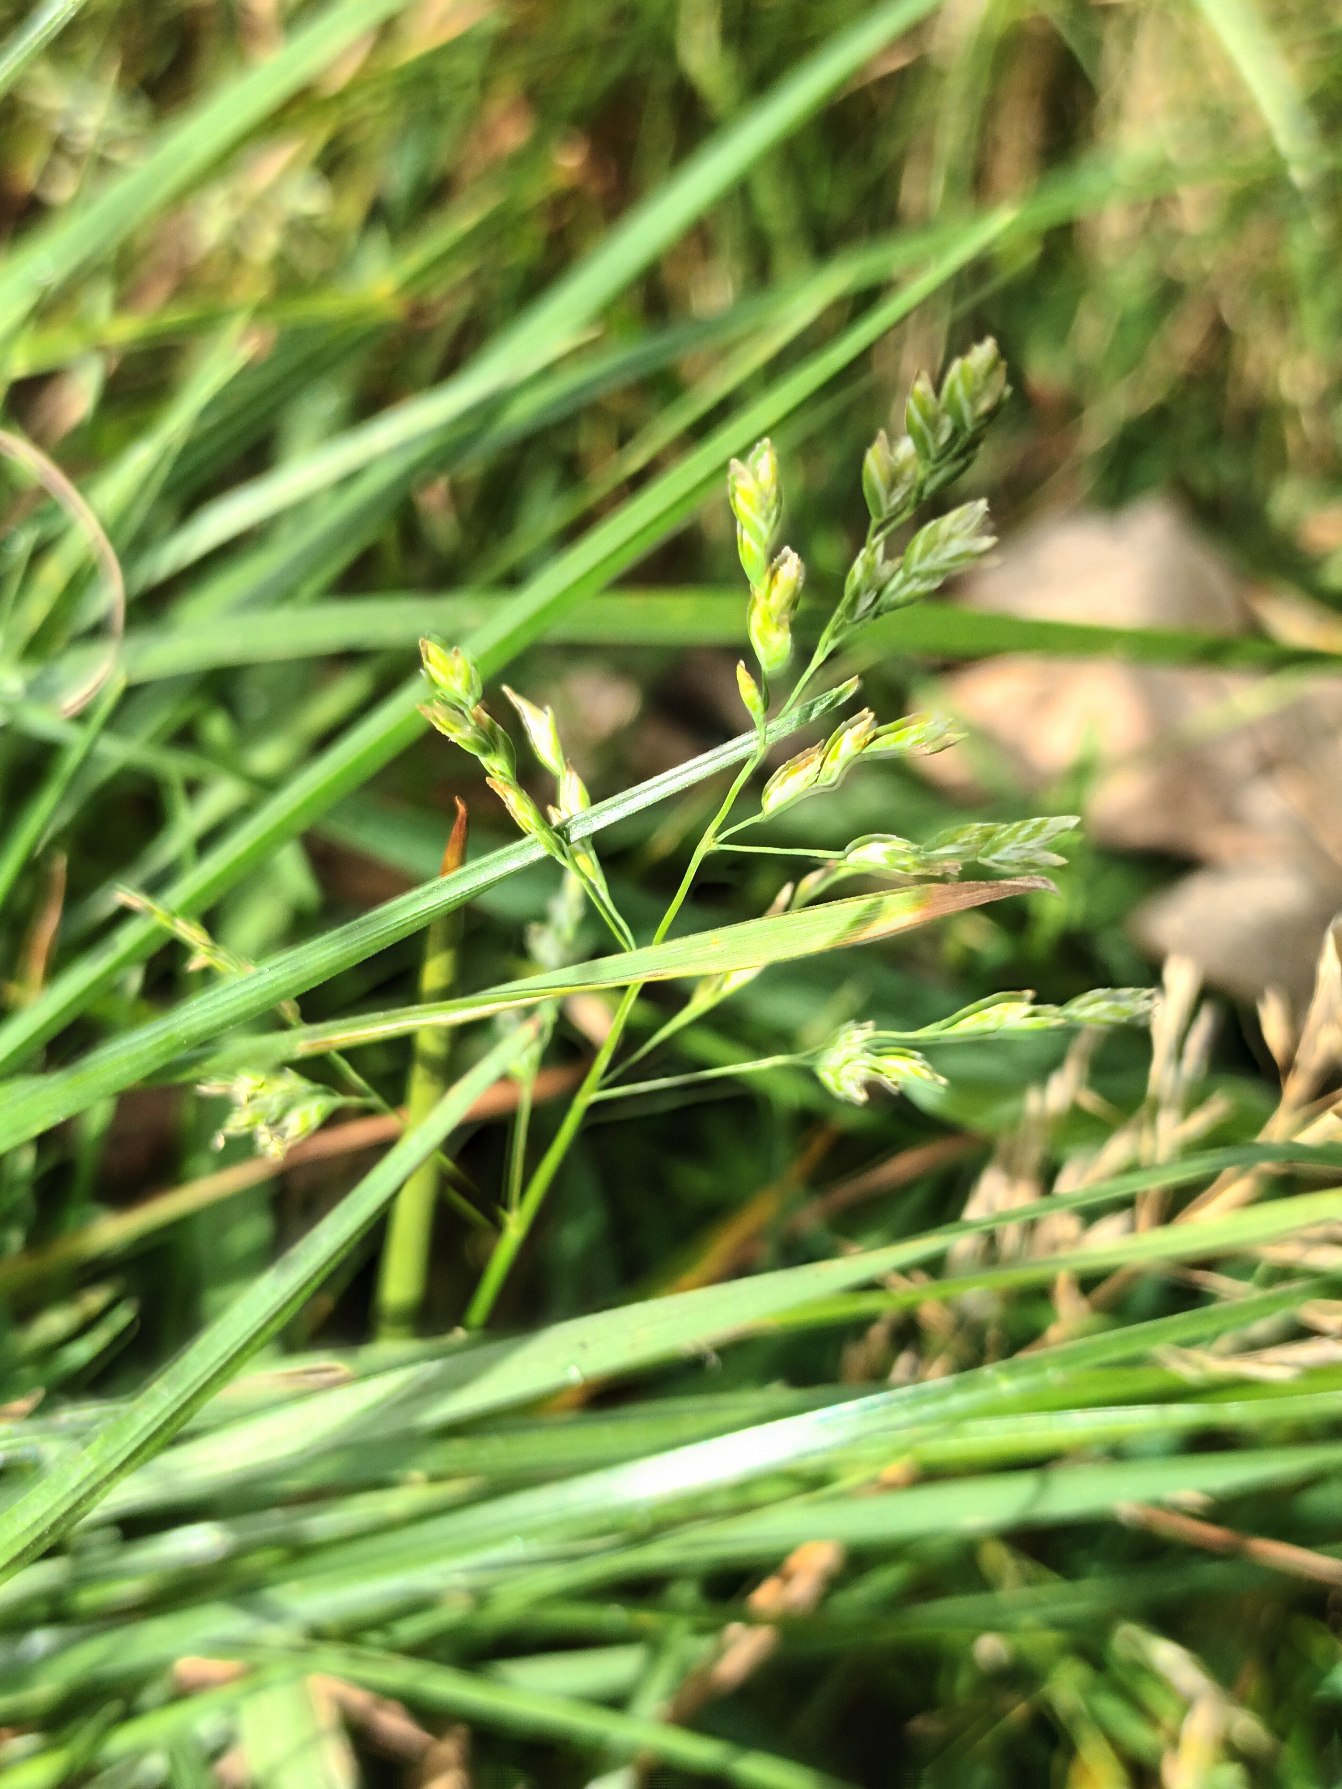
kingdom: Plantae
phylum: Tracheophyta
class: Liliopsida
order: Poales
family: Poaceae
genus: Poa
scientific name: Poa annua
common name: Enårig rapgræs
